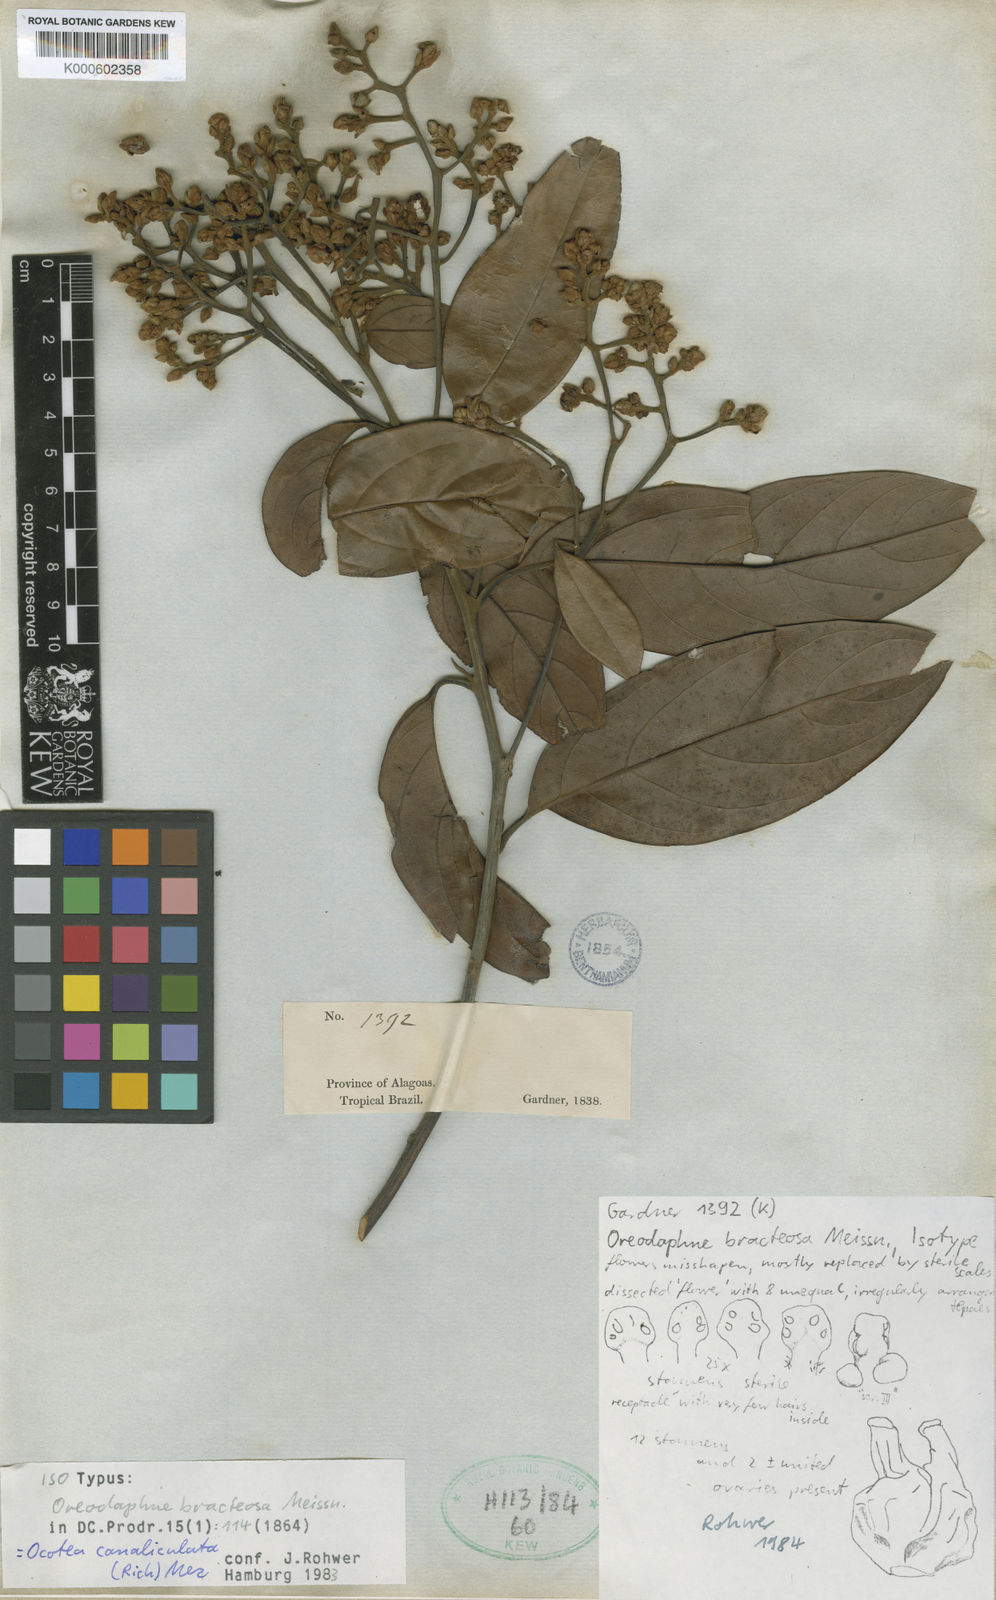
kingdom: Plantae
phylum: Tracheophyta
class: Magnoliopsida
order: Laurales
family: Lauraceae
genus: Ocotea
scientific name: Ocotea bracteosa
